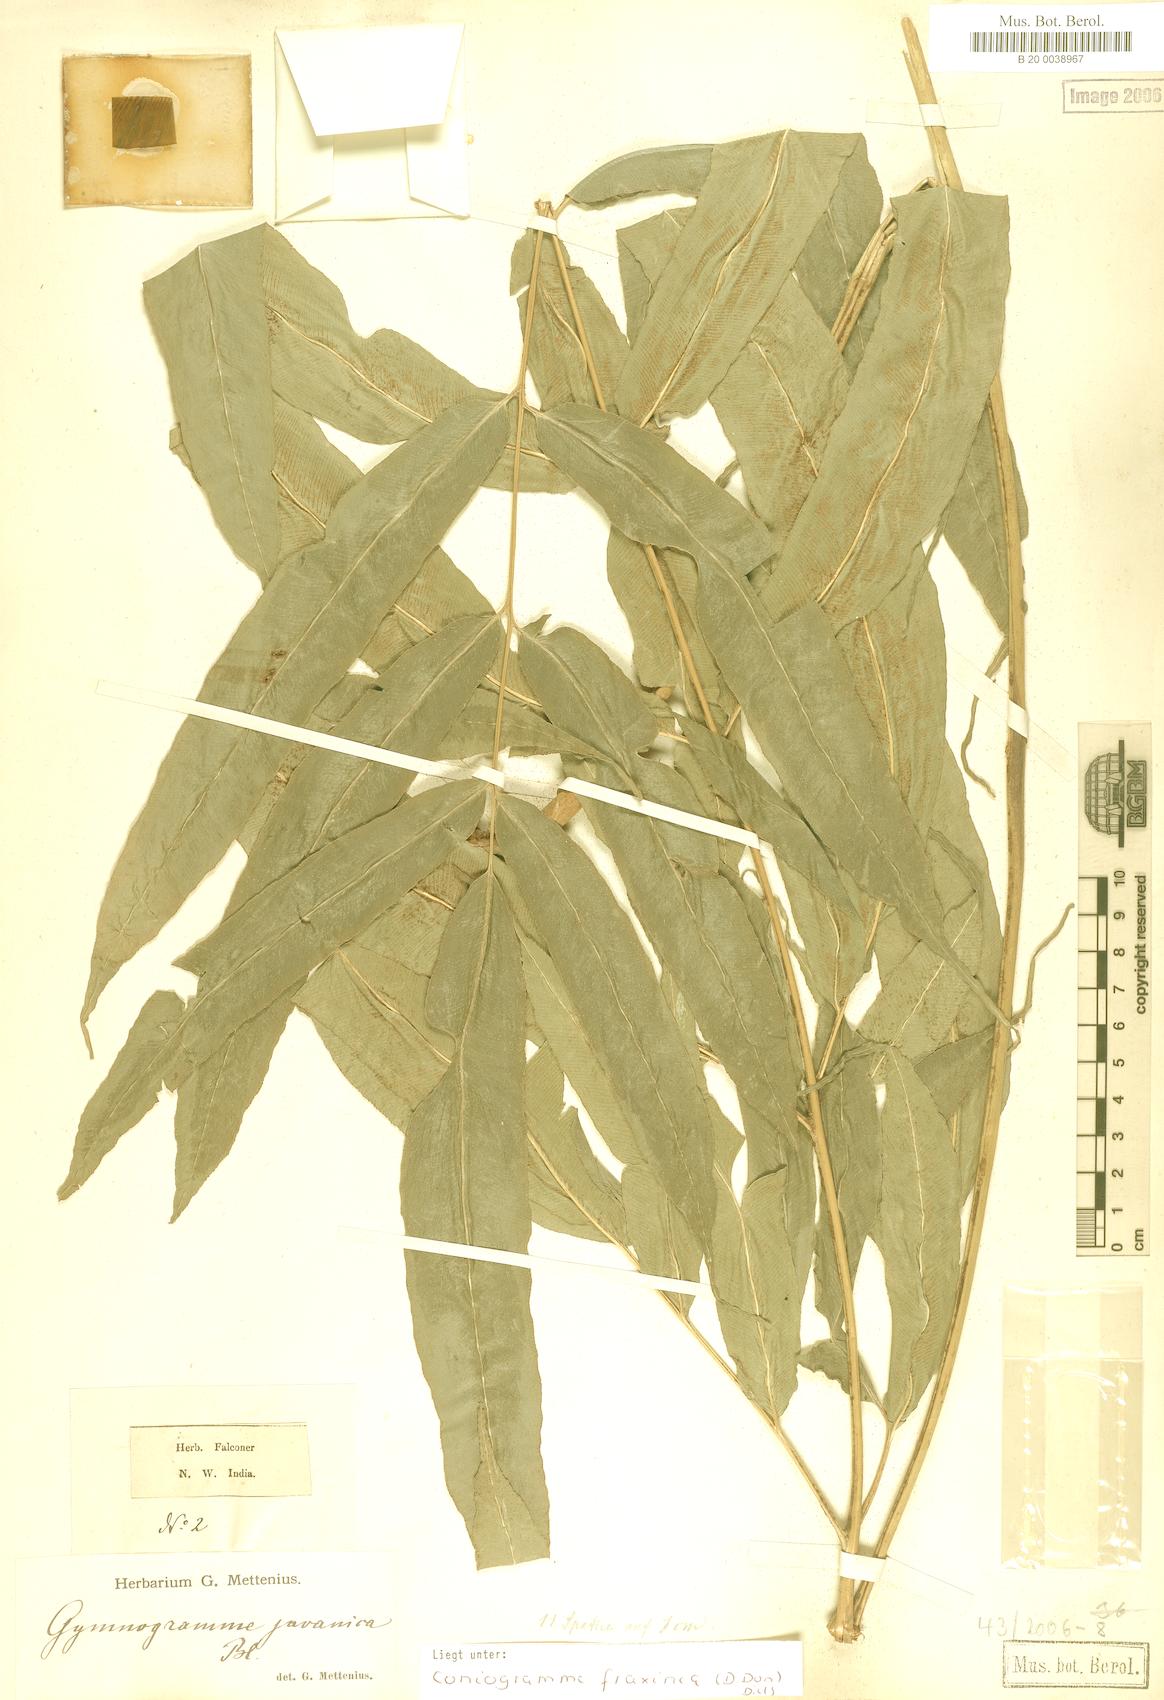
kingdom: Plantae
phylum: Tracheophyta
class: Polypodiopsida
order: Polypodiales
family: Pteridaceae
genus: Coniogramme
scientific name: Coniogramme fraxinea
